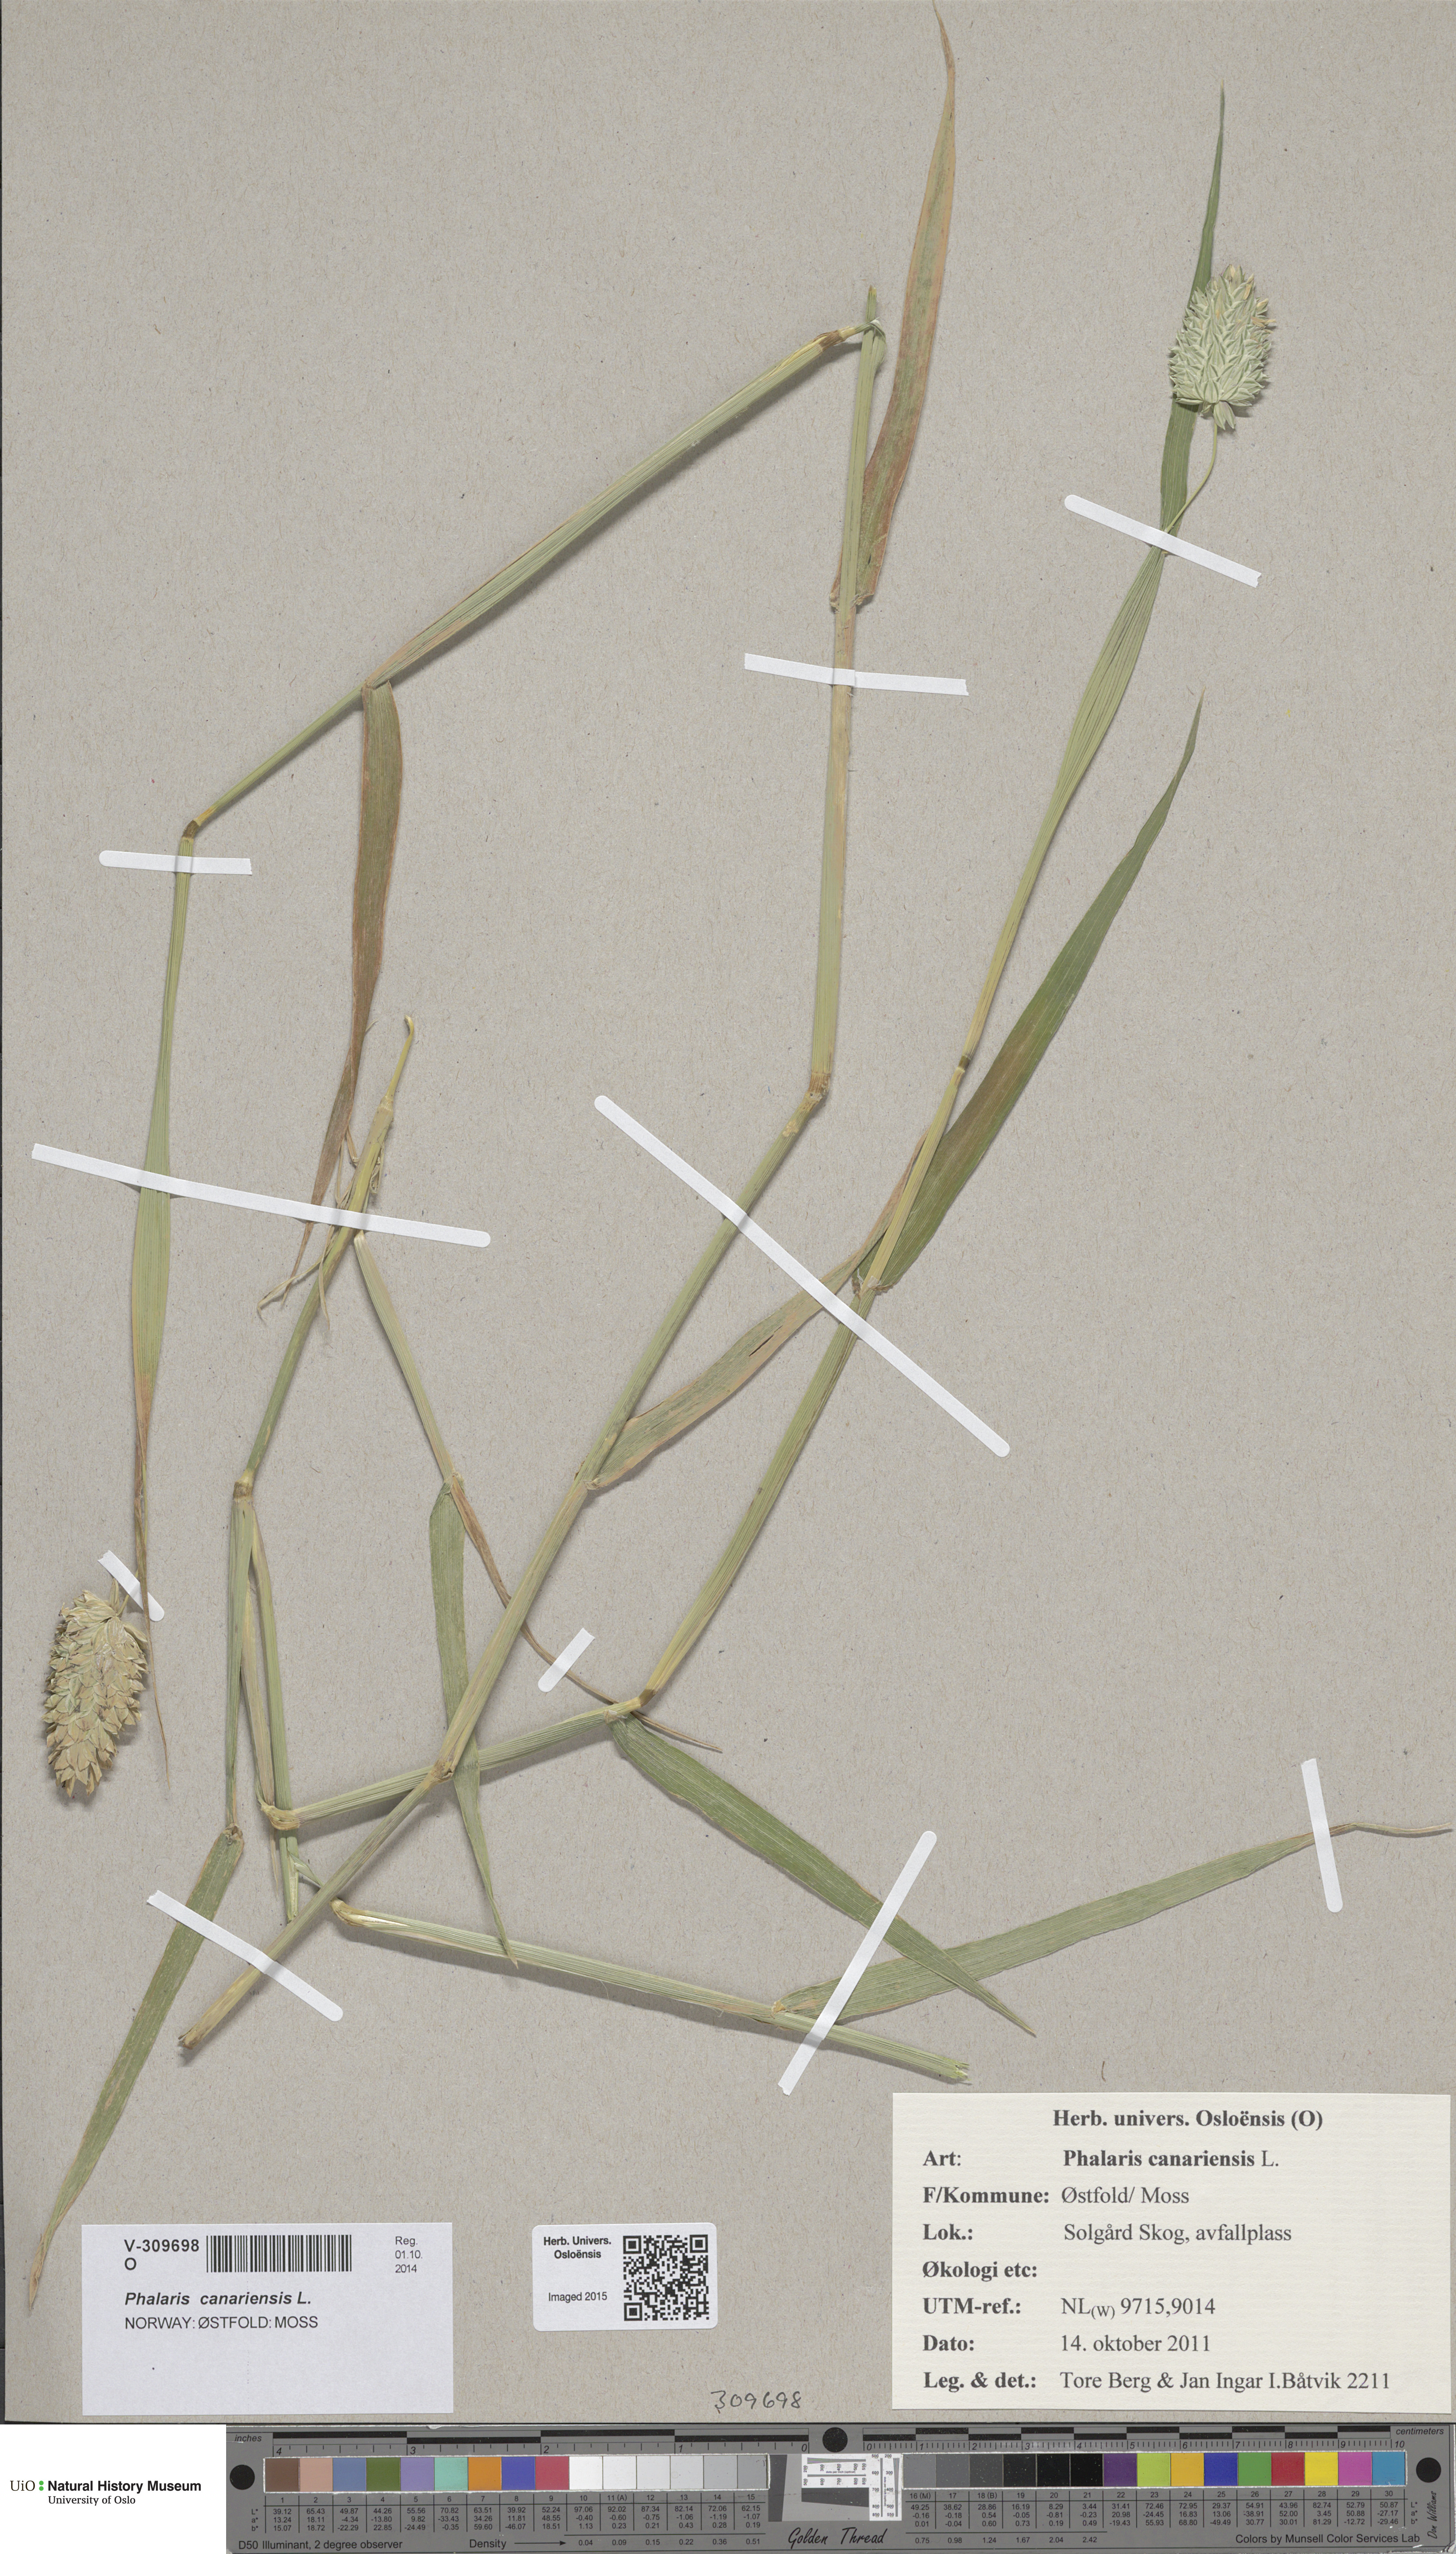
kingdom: Plantae
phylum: Tracheophyta
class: Liliopsida
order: Poales
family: Poaceae
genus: Phalaris
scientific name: Phalaris canariensis
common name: Annual canarygrass
